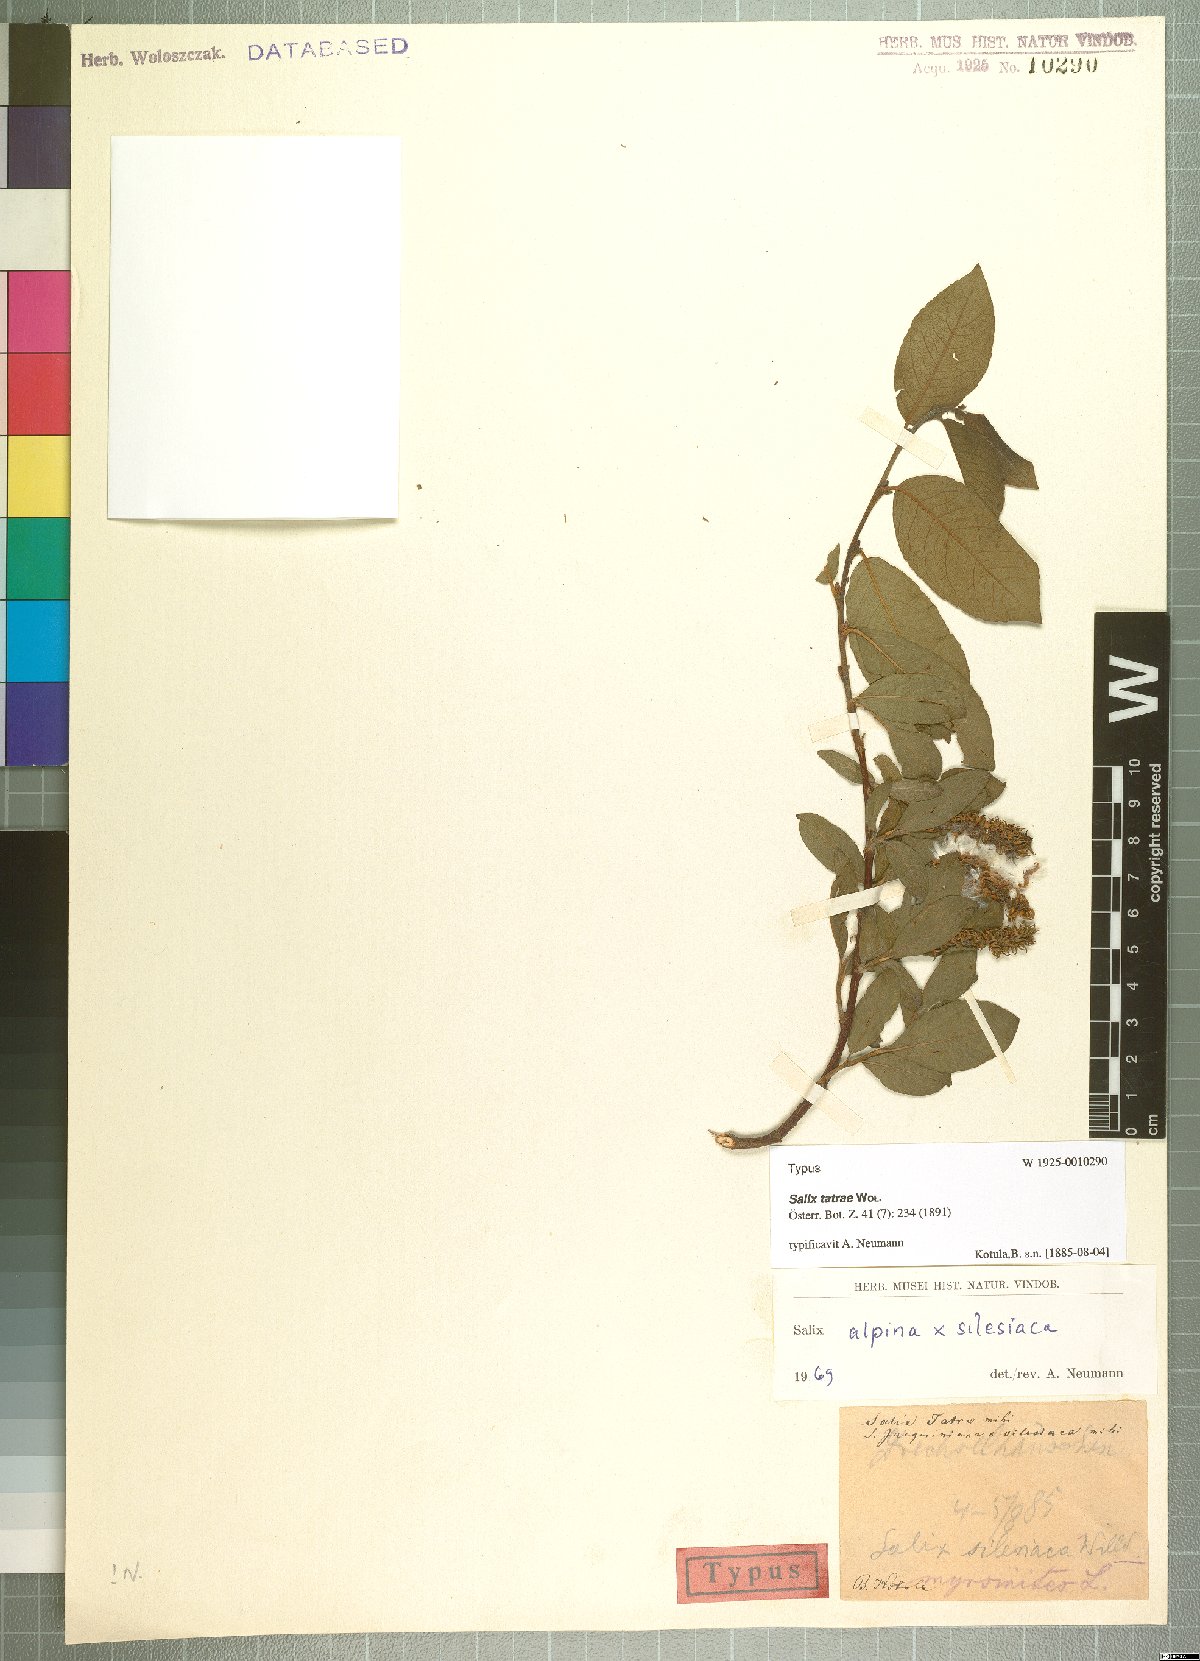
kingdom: Plantae
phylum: Tracheophyta
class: Magnoliopsida
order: Malpighiales
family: Salicaceae
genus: Salix
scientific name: Salix tatrae
